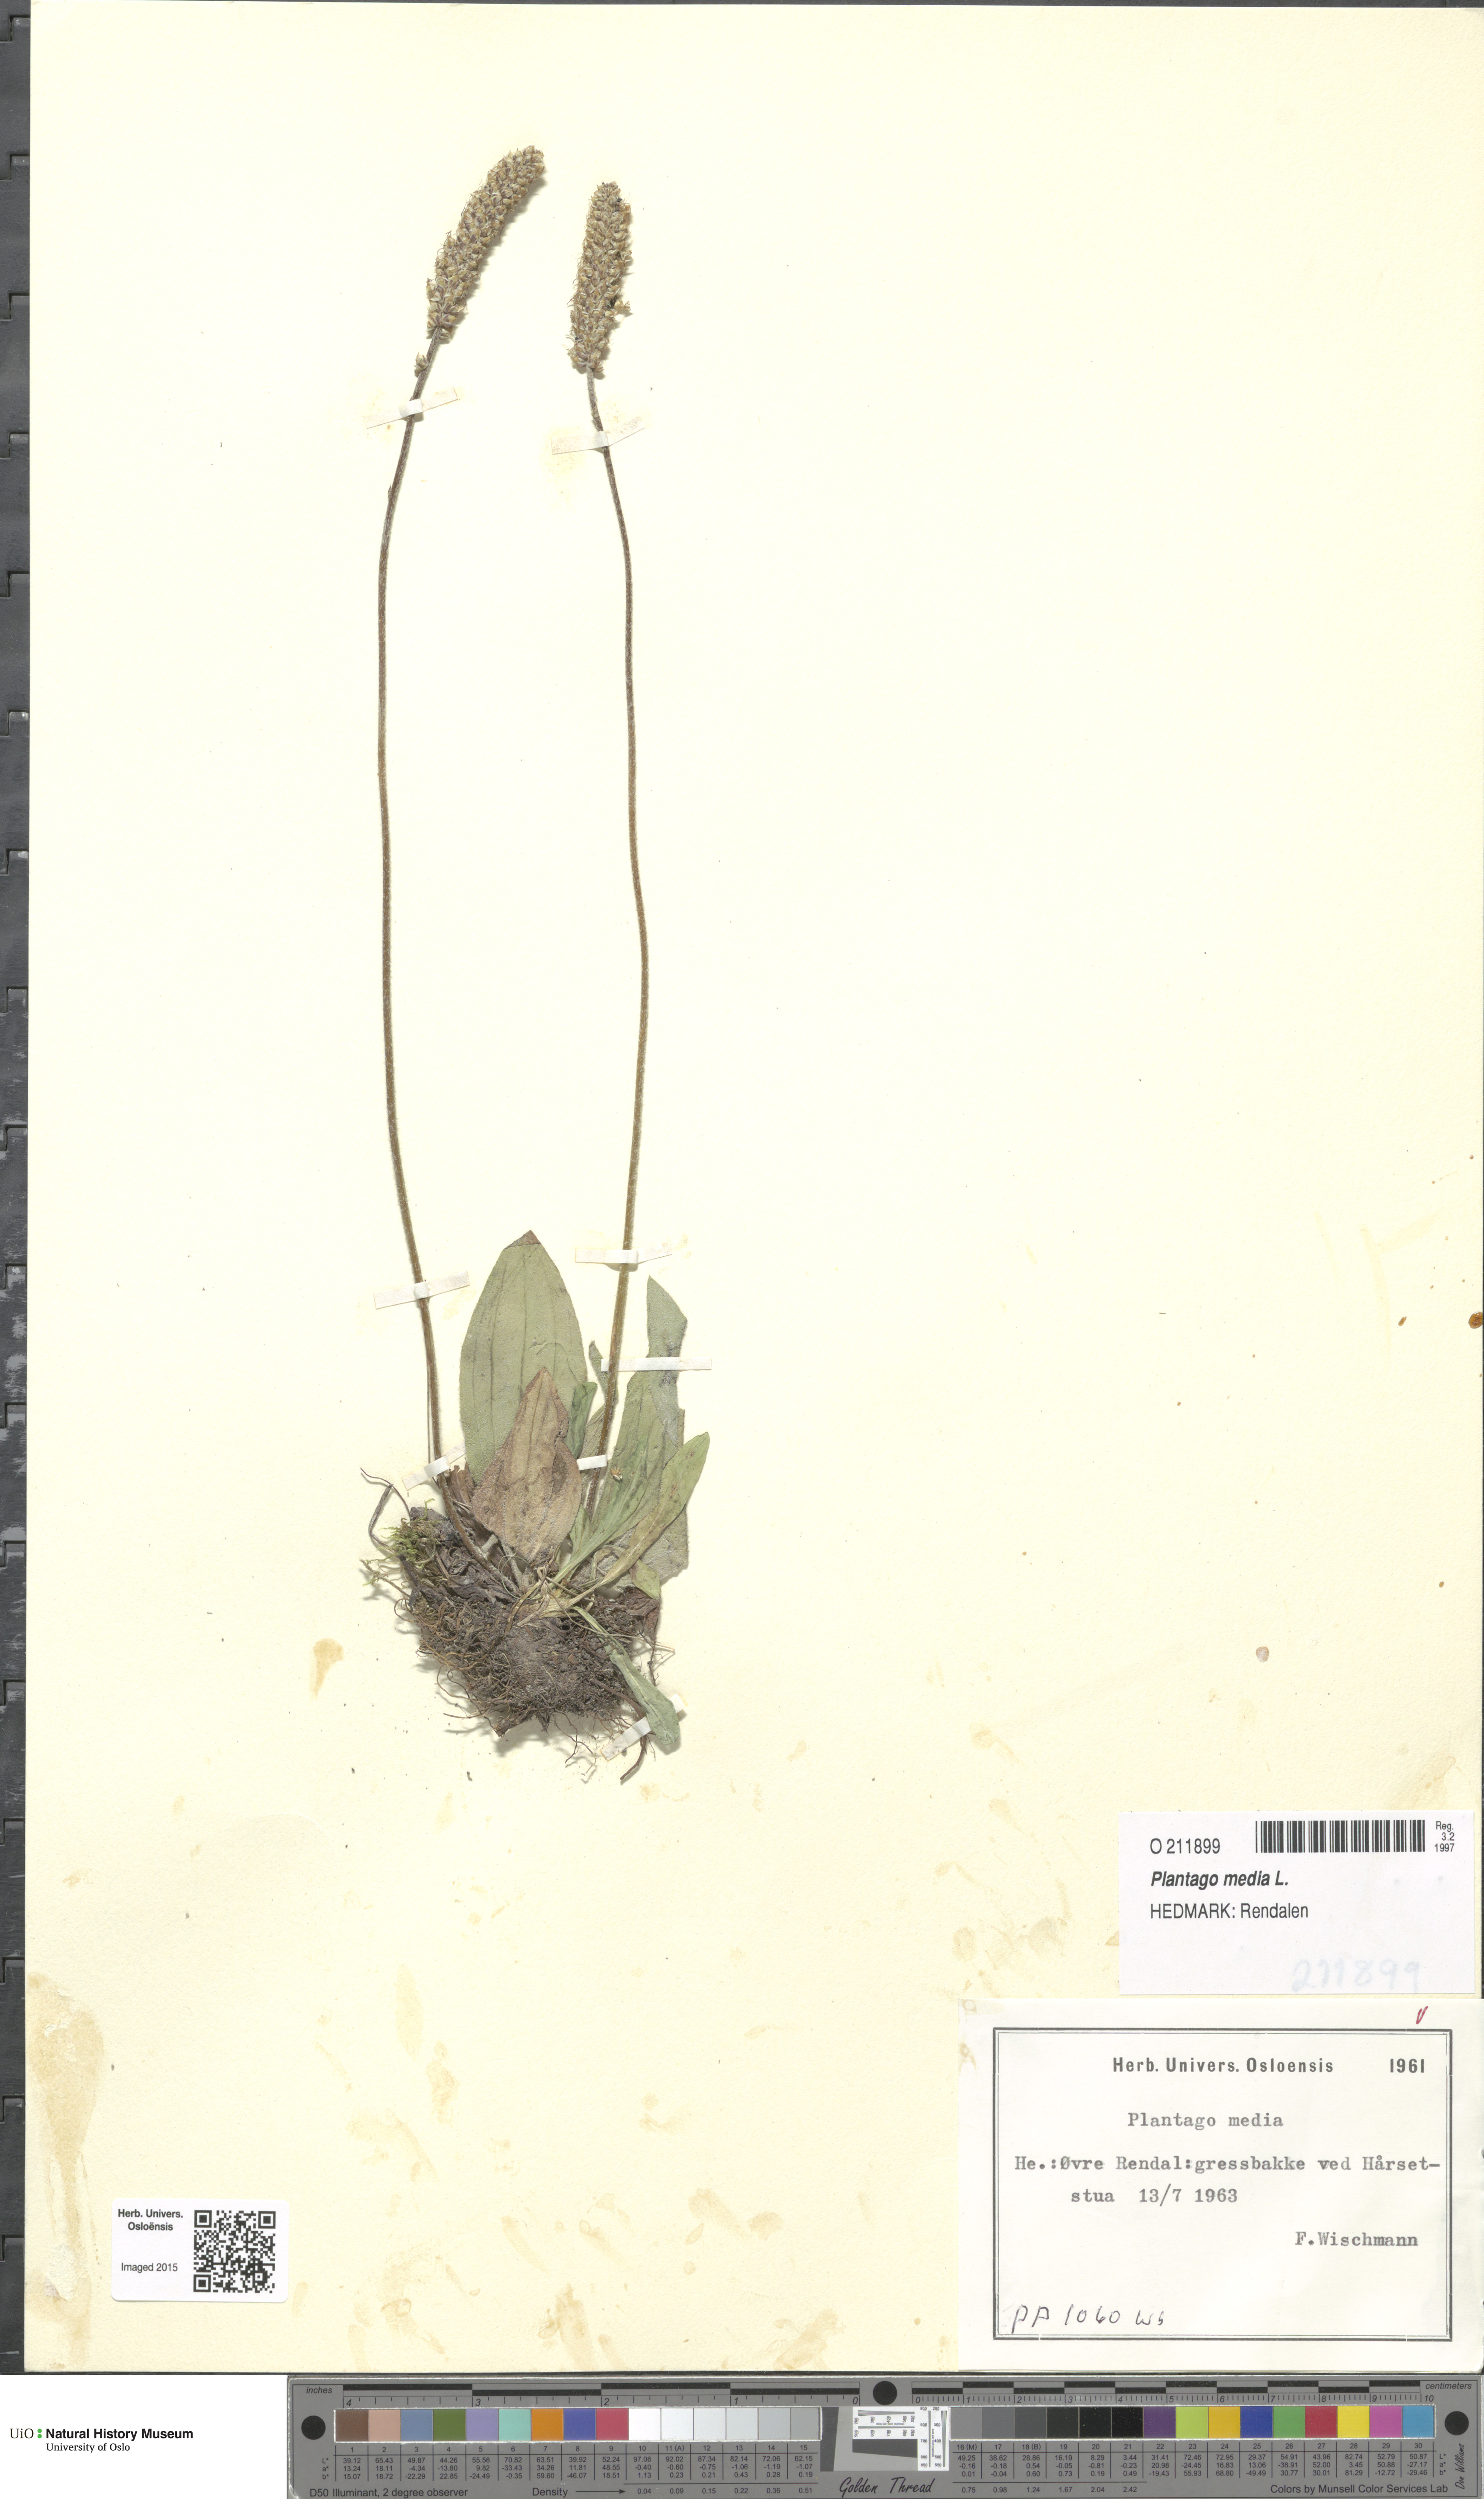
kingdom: Plantae
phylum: Tracheophyta
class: Magnoliopsida
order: Lamiales
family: Plantaginaceae
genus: Plantago
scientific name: Plantago media
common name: Hoary plantain
